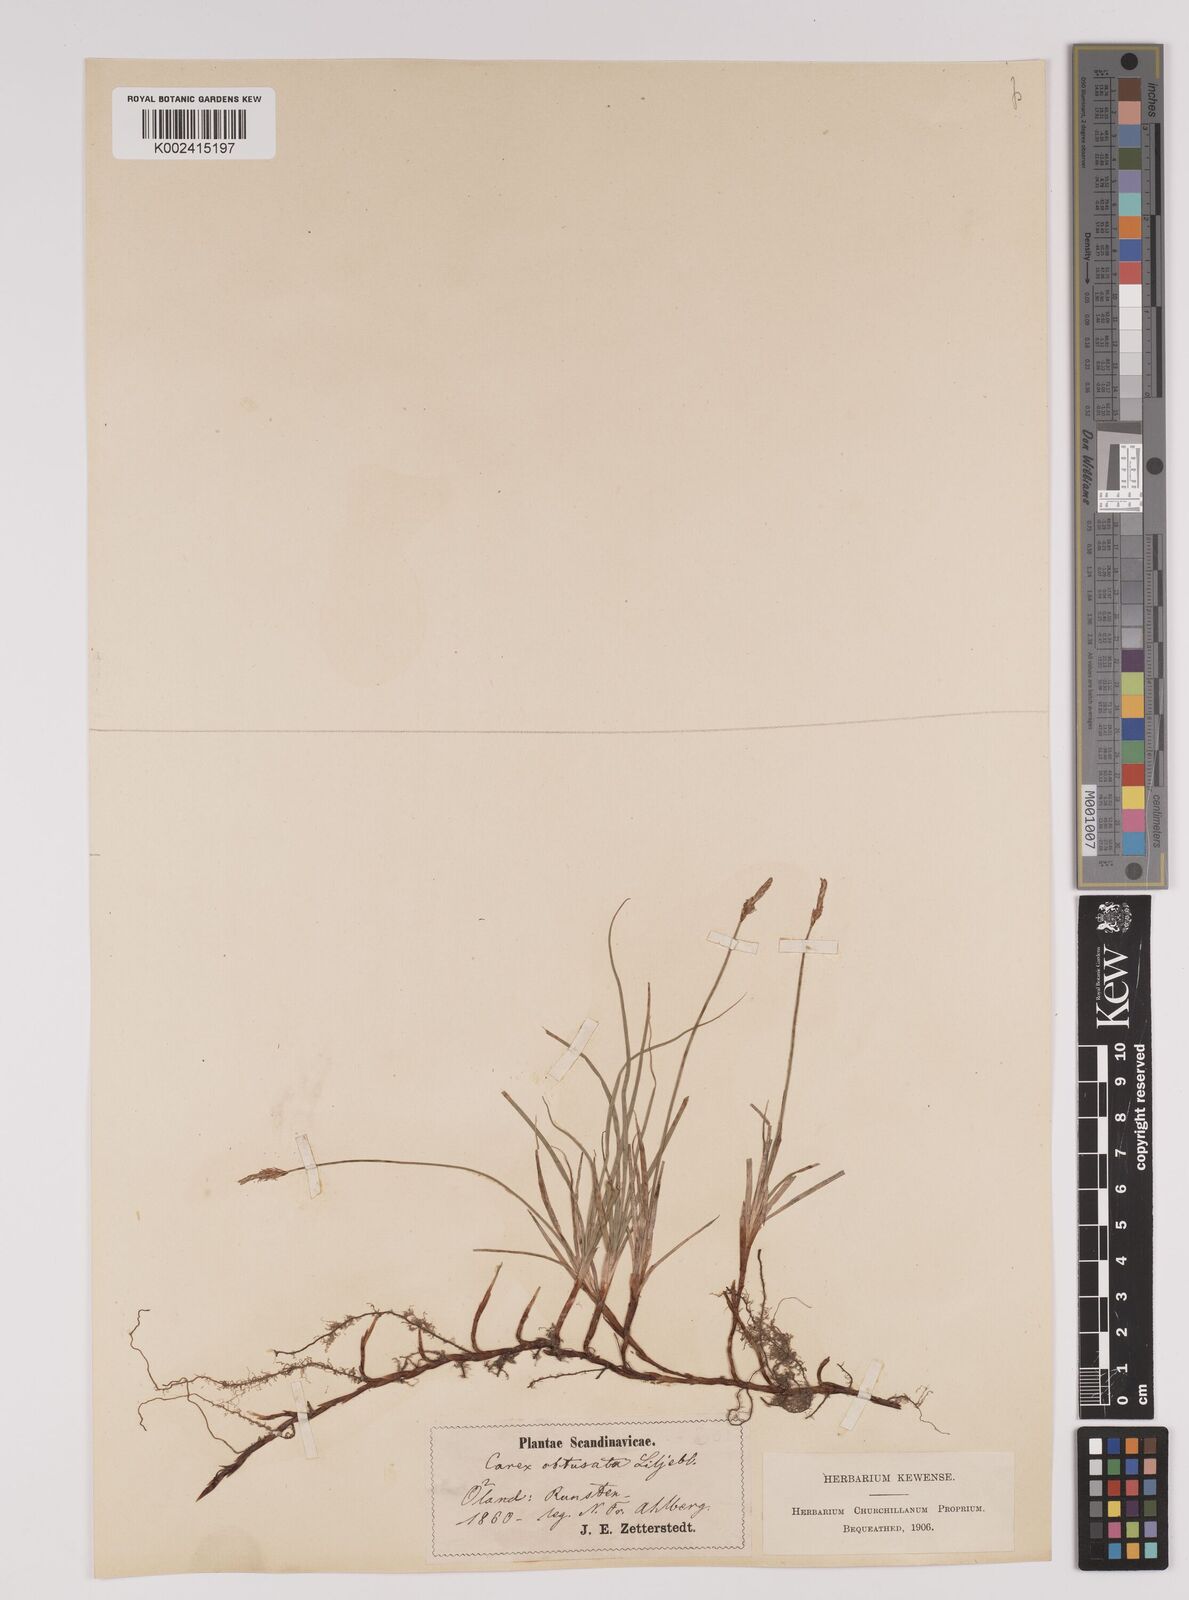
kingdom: Plantae
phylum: Tracheophyta
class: Liliopsida
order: Poales
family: Cyperaceae
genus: Carex
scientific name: Carex obtusata
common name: Blunt sedge
